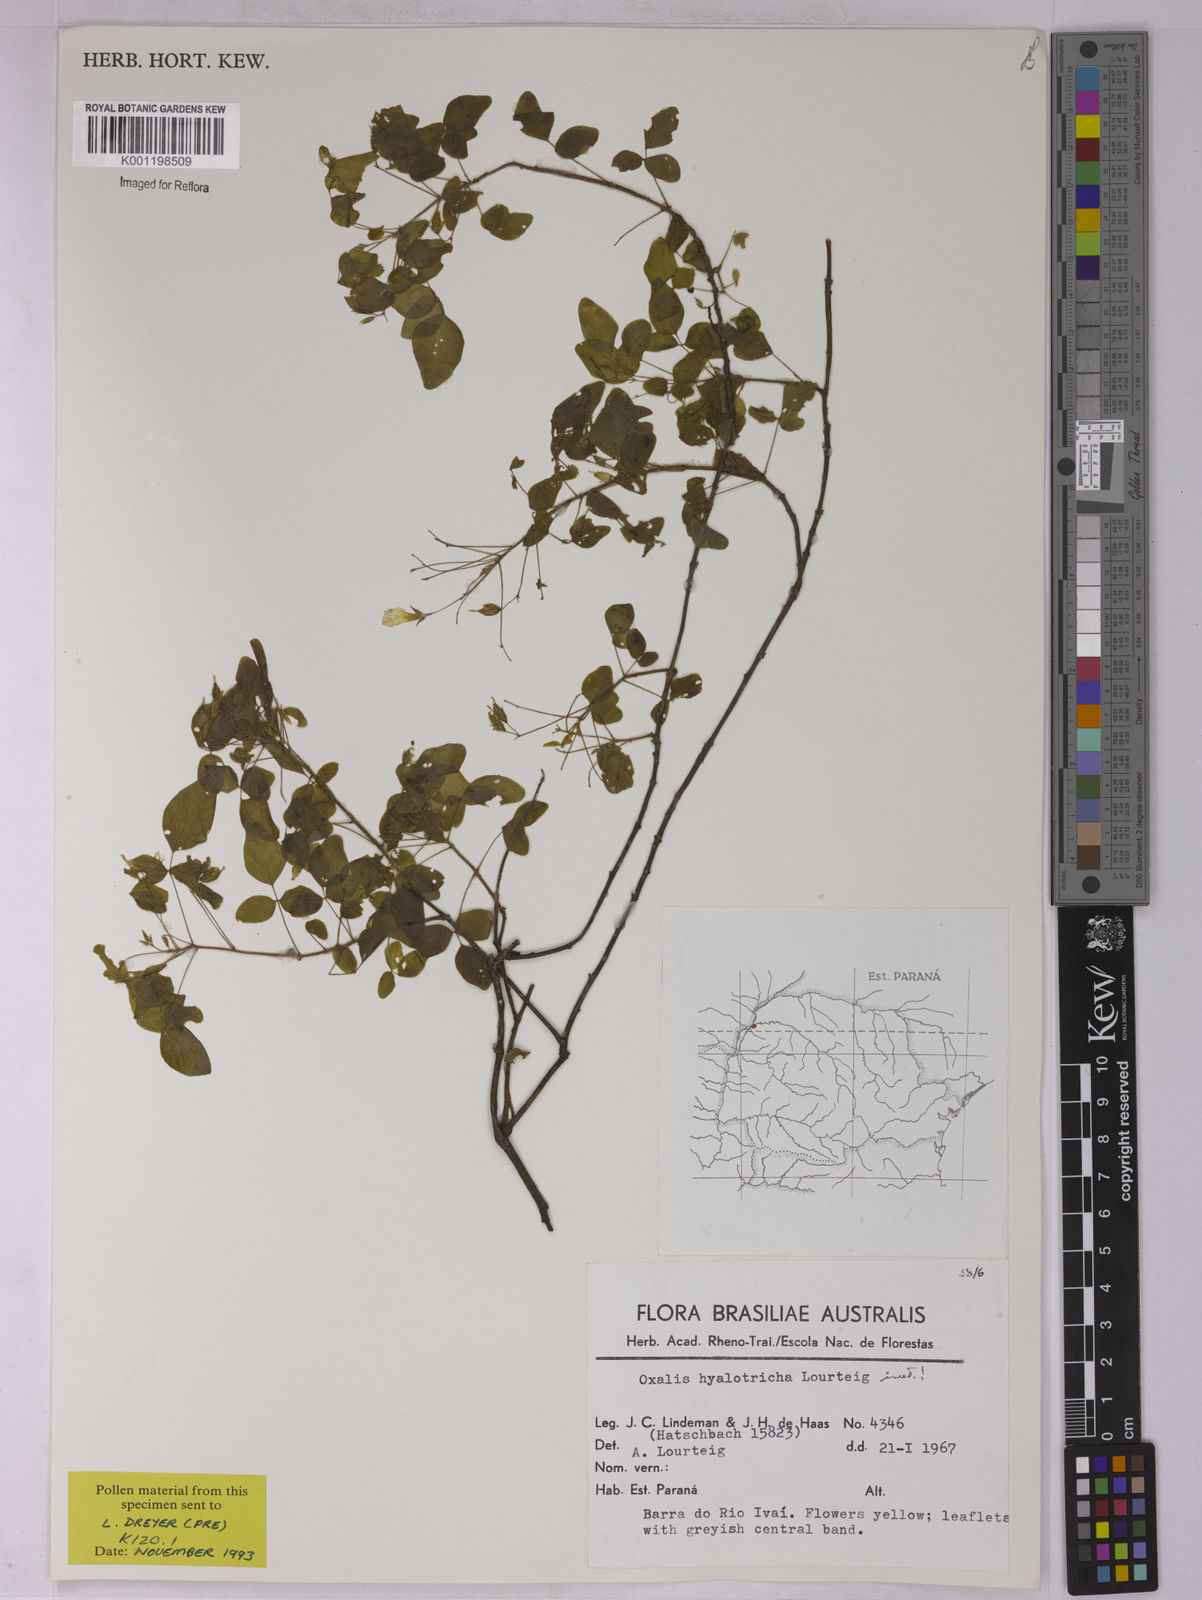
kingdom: Plantae
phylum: Tracheophyta
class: Magnoliopsida
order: Oxalidales
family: Oxalidaceae
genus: Oxalis
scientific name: Oxalis frutescens
